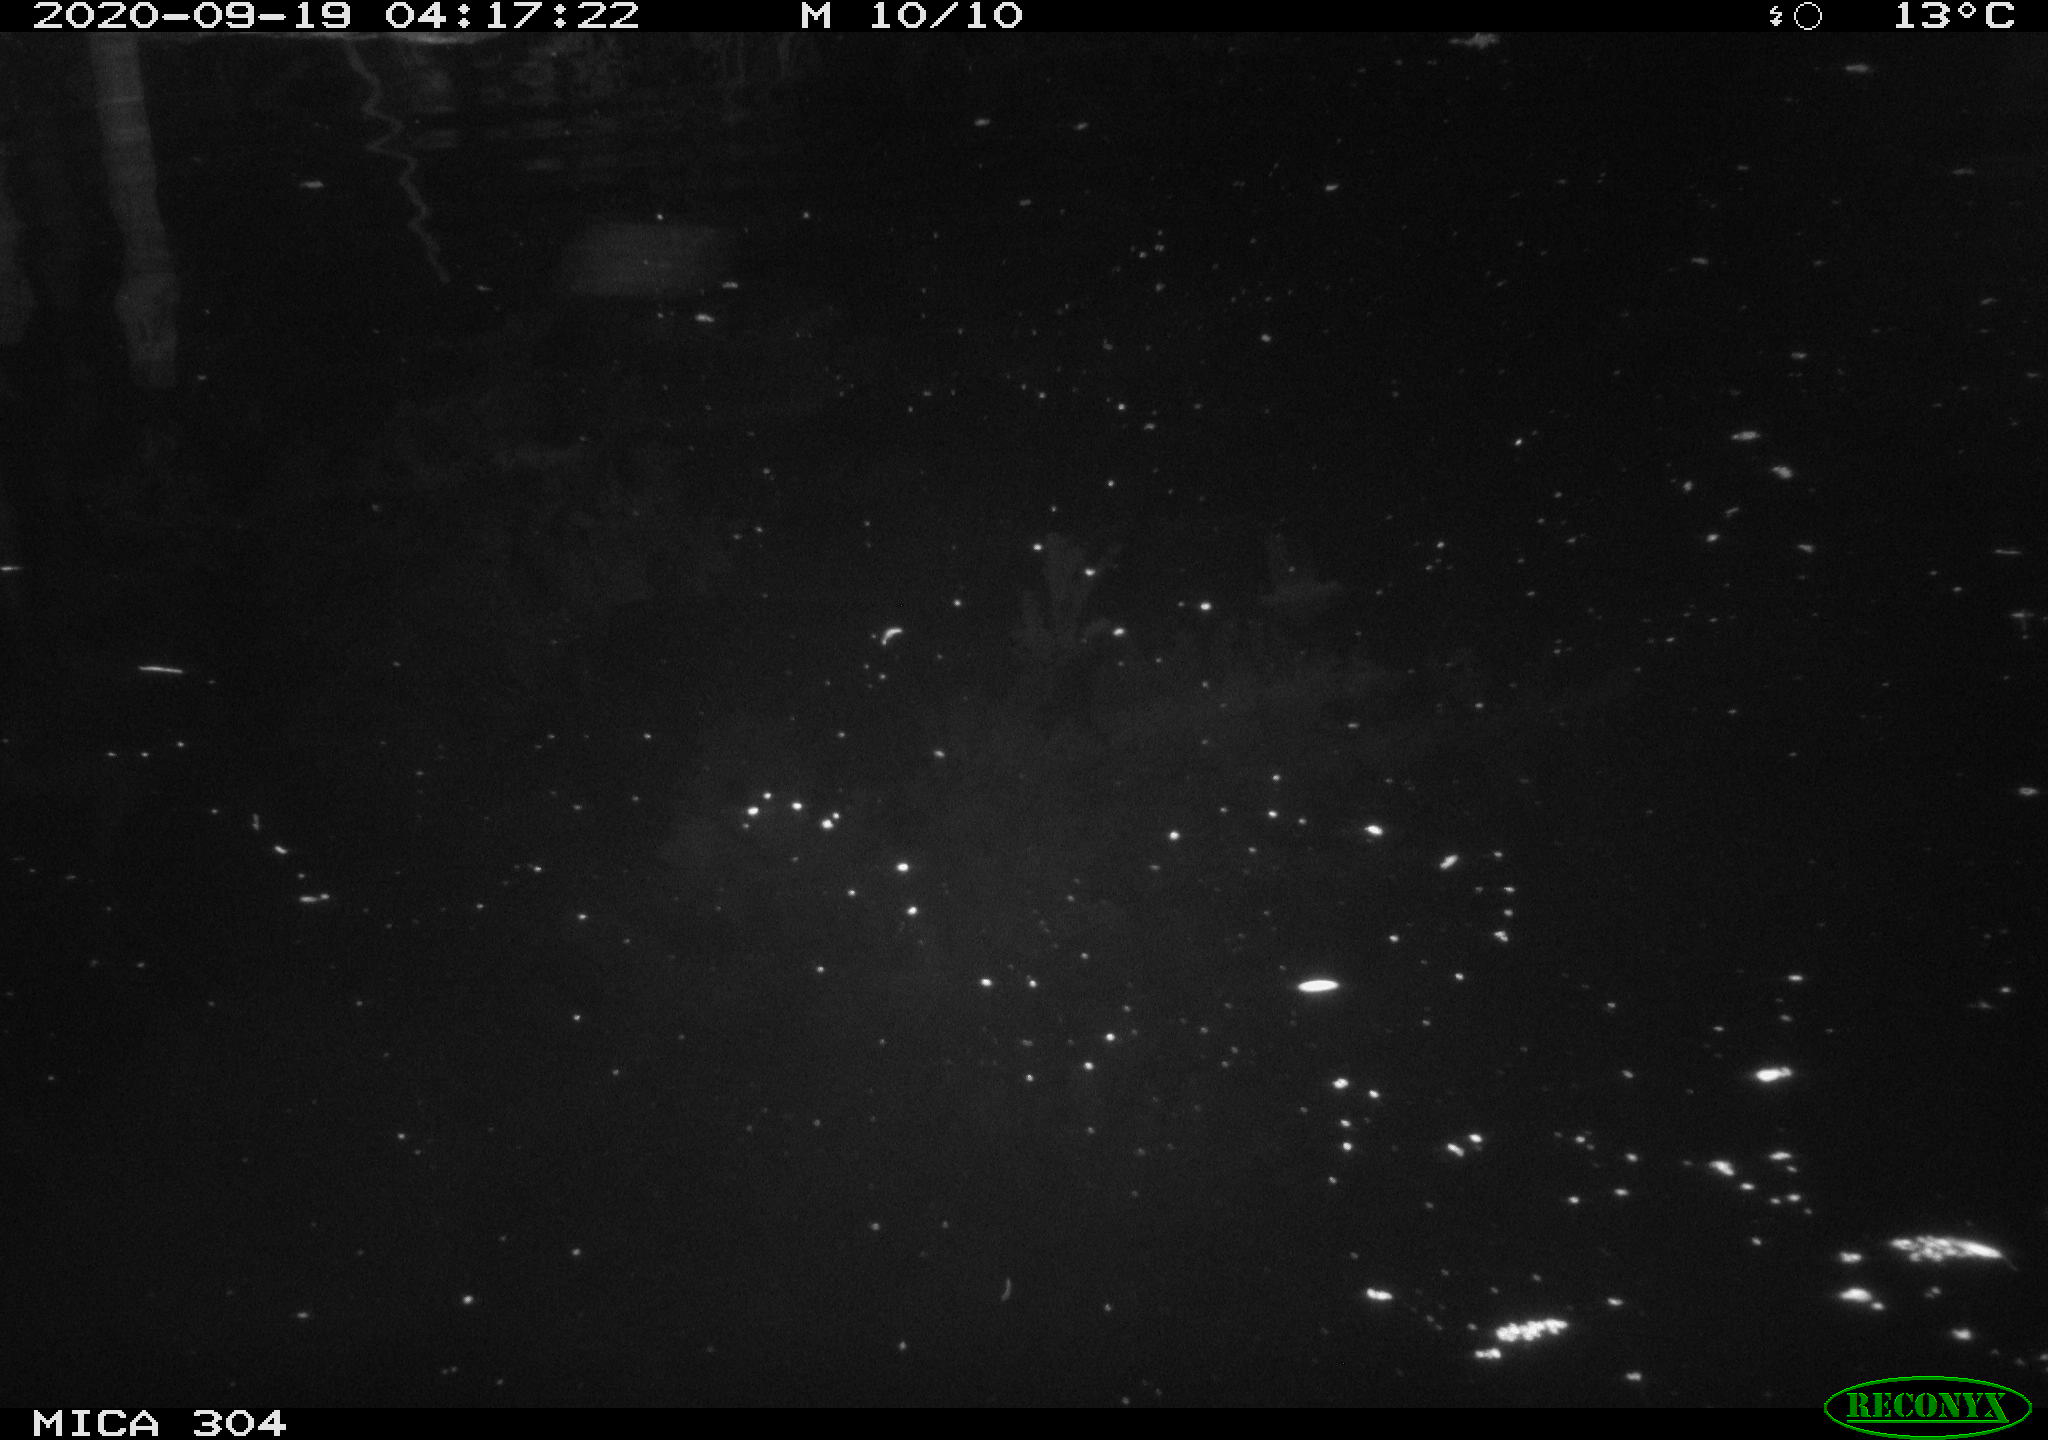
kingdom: Animalia
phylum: Chordata
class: Mammalia
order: Rodentia
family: Muridae
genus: Rattus
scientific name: Rattus norvegicus
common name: Brown rat
